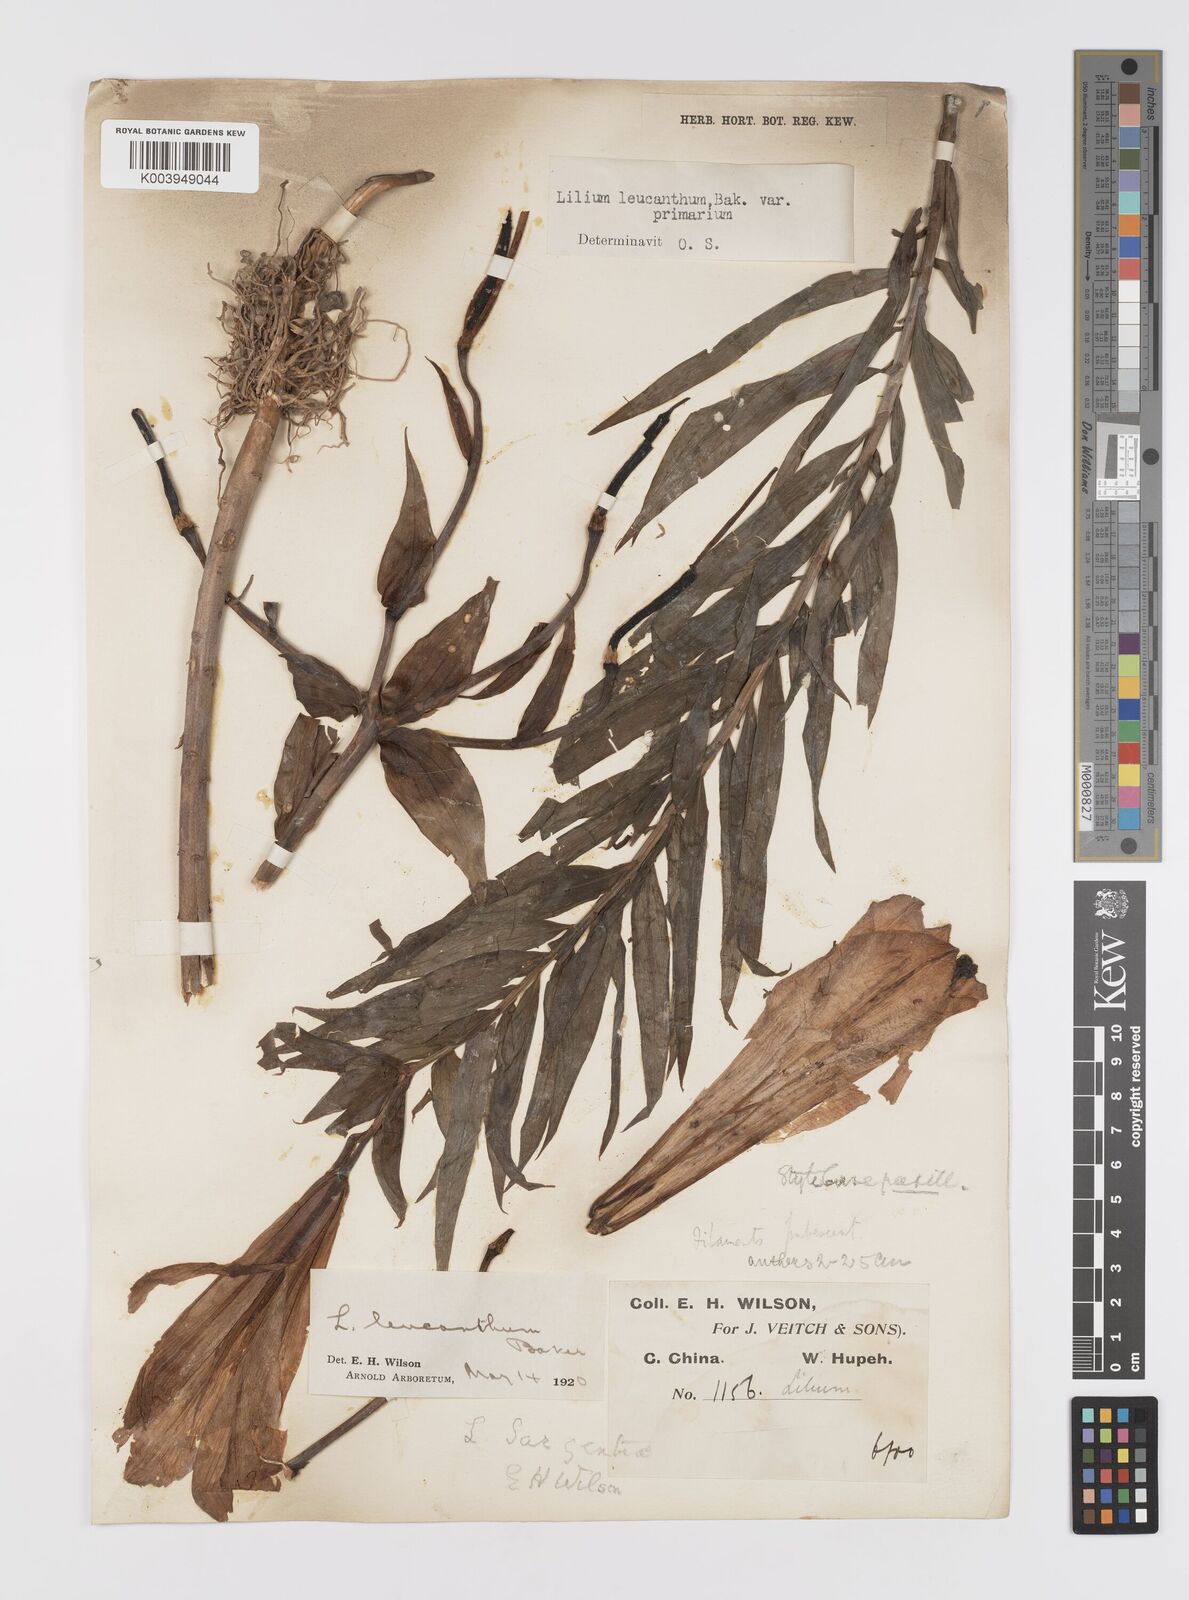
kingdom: Plantae
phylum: Tracheophyta
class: Liliopsida
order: Liliales
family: Liliaceae
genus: Lilium
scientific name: Lilium leucanthum
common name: Chinese white lily
